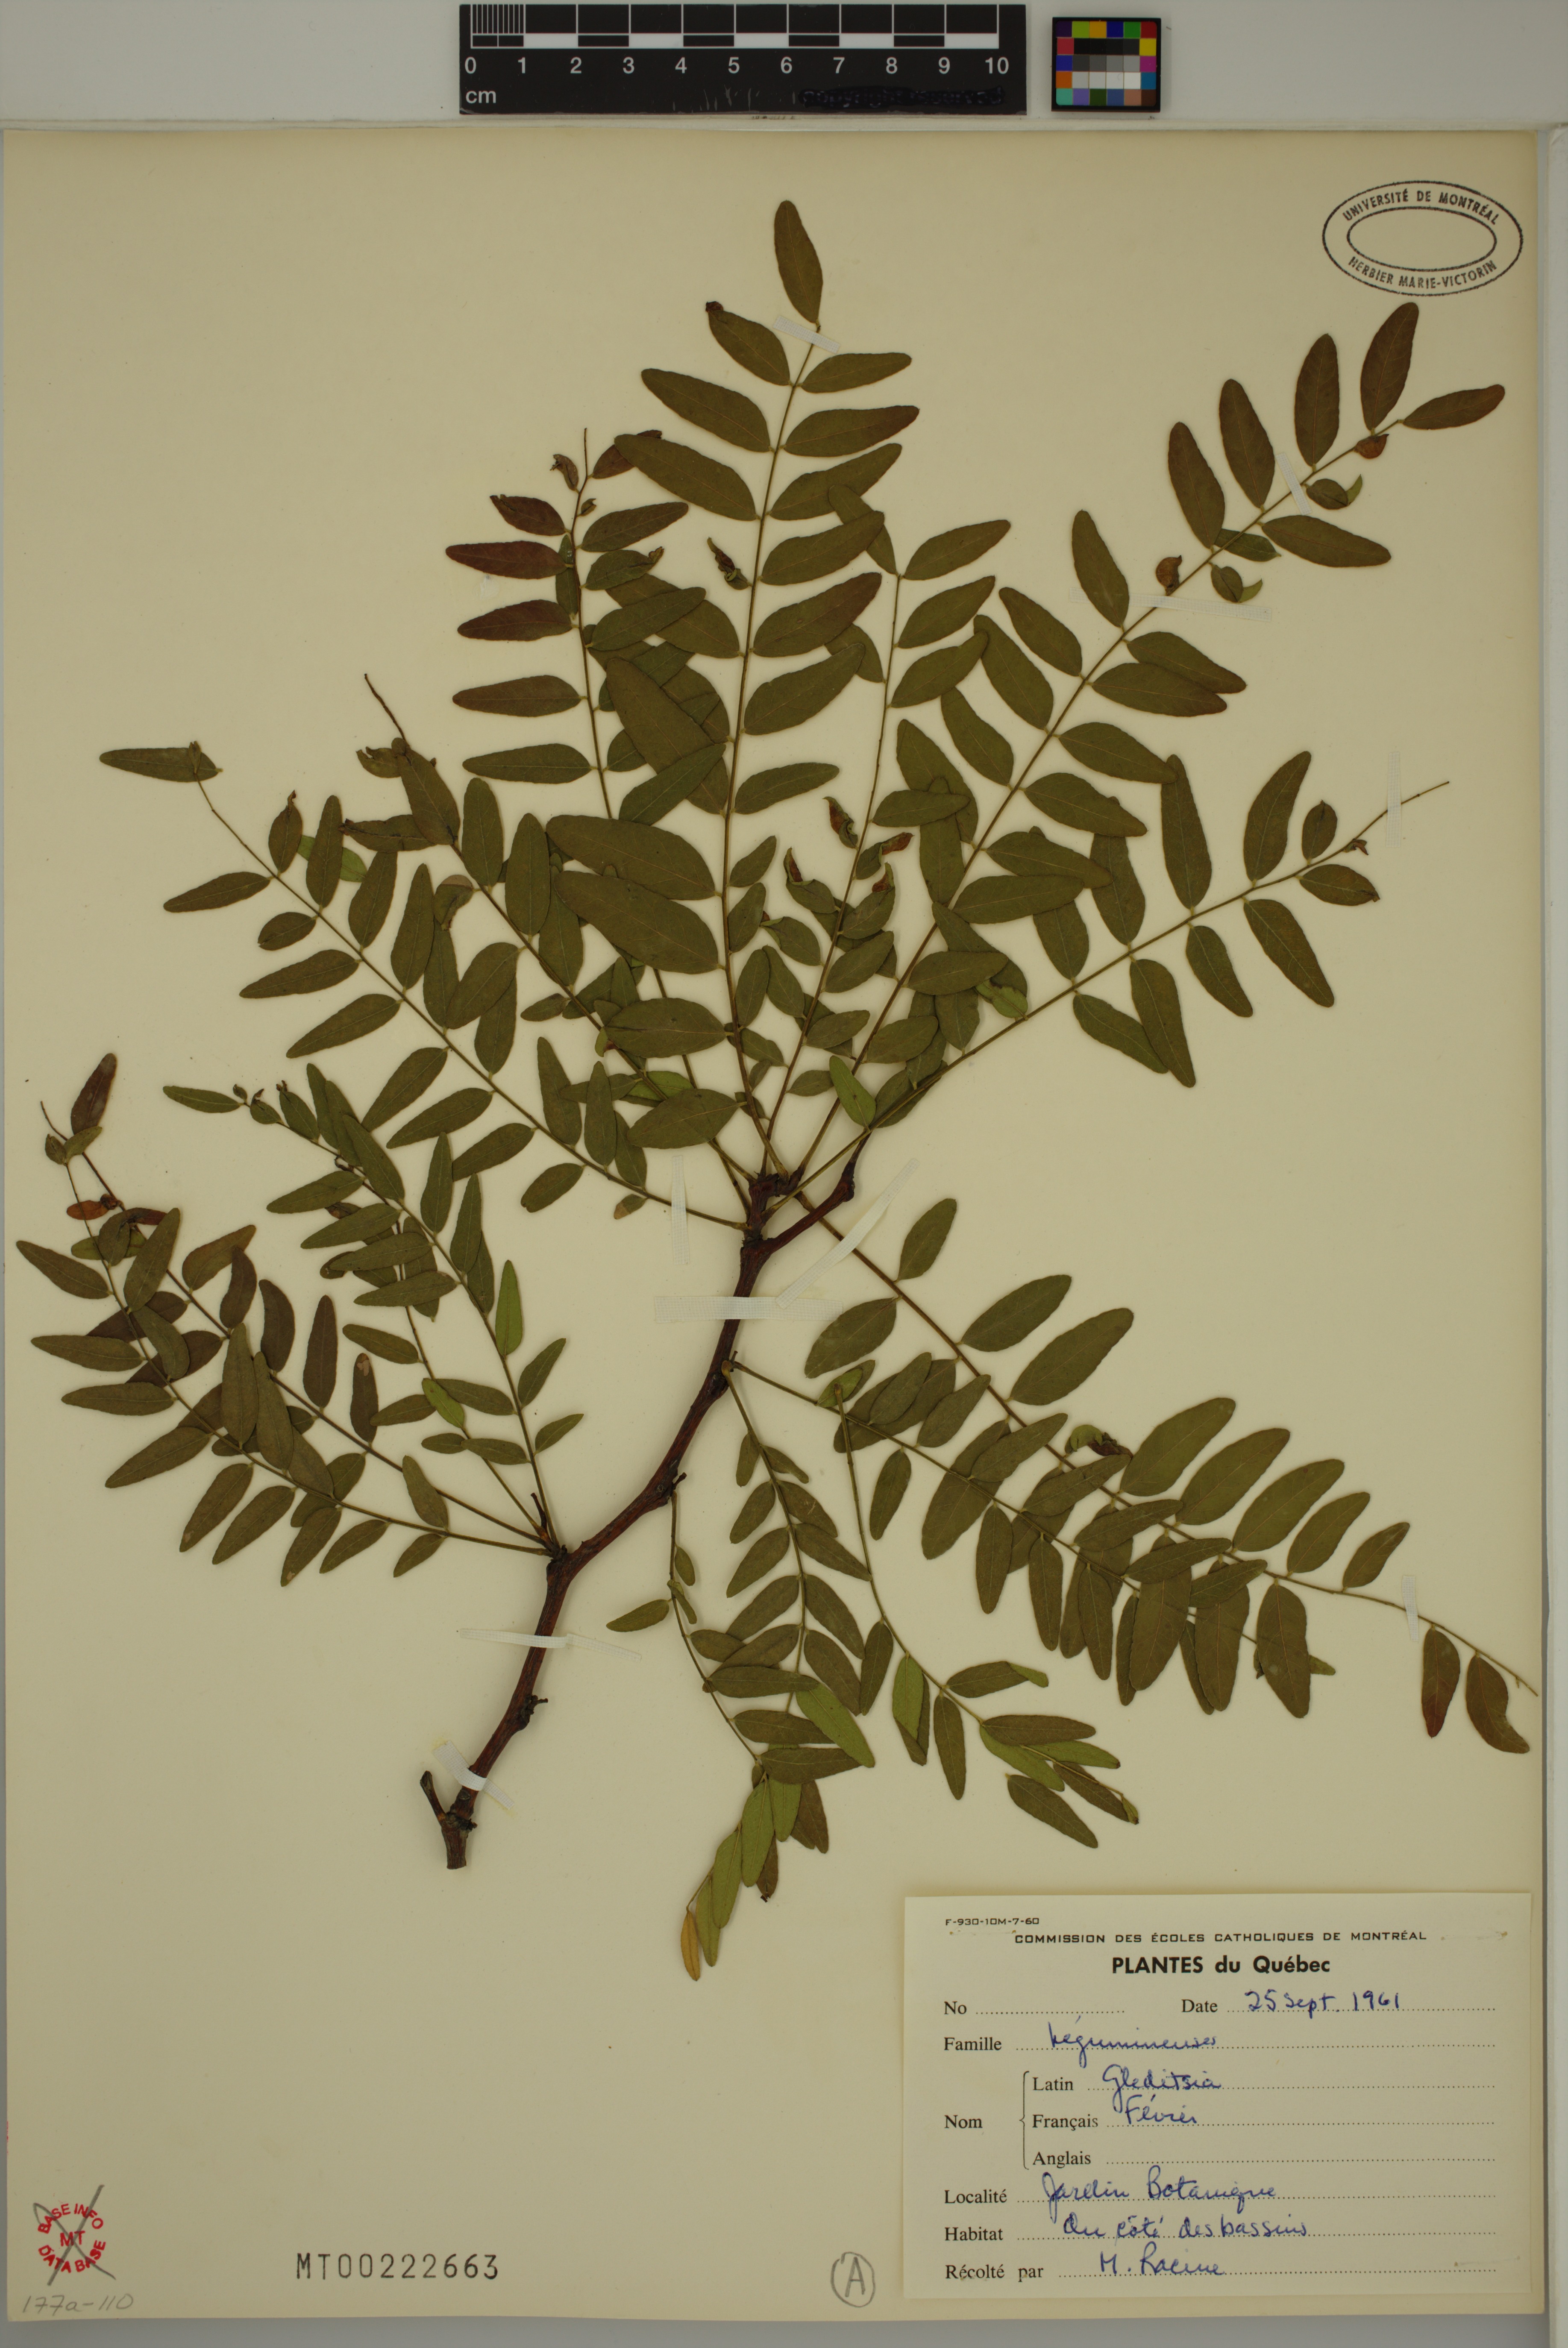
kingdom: Plantae
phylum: Tracheophyta
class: Magnoliopsida
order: Fabales
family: Fabaceae
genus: Gleditsia
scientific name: Gleditsia triacanthos
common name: Common honeylocust
